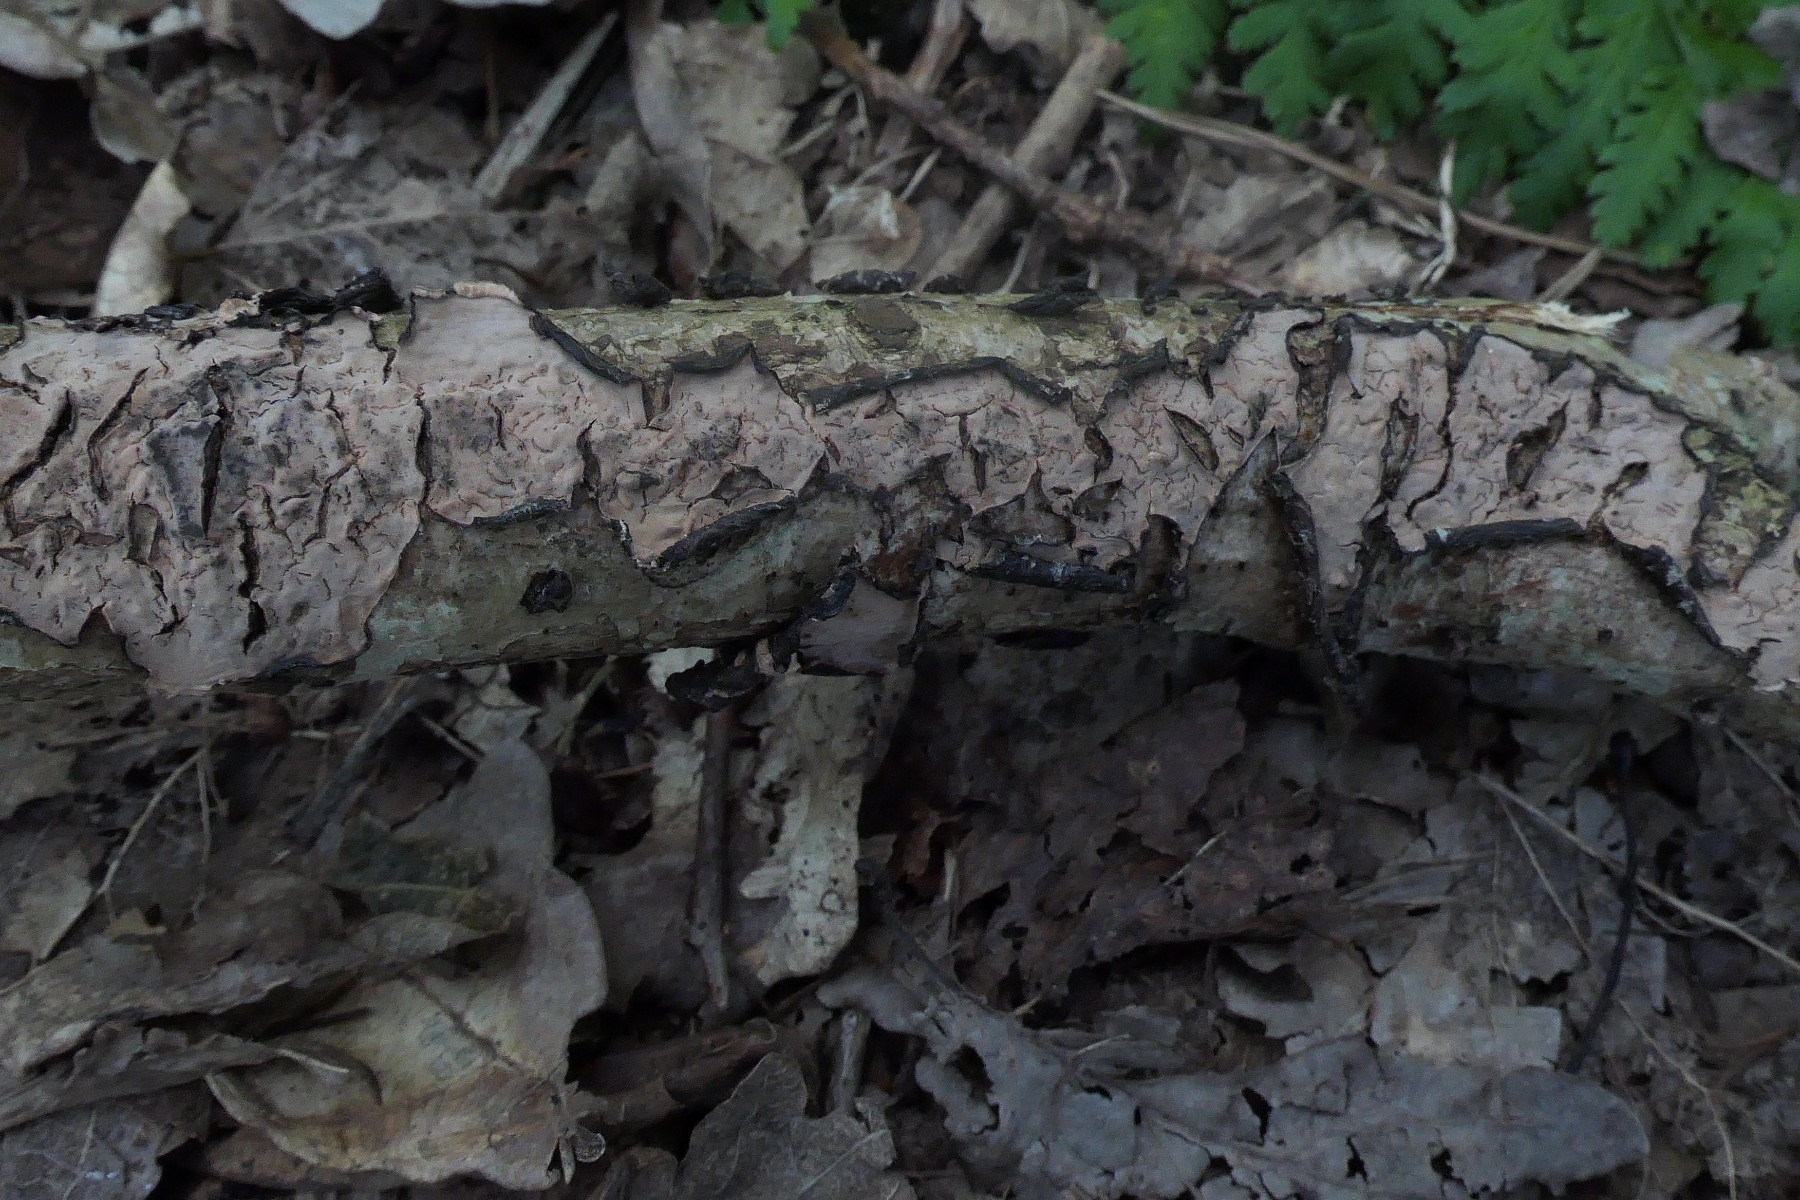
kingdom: Fungi
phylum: Basidiomycota
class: Agaricomycetes
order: Russulales
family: Peniophoraceae
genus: Peniophora
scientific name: Peniophora quercina
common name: ege-voksskind
